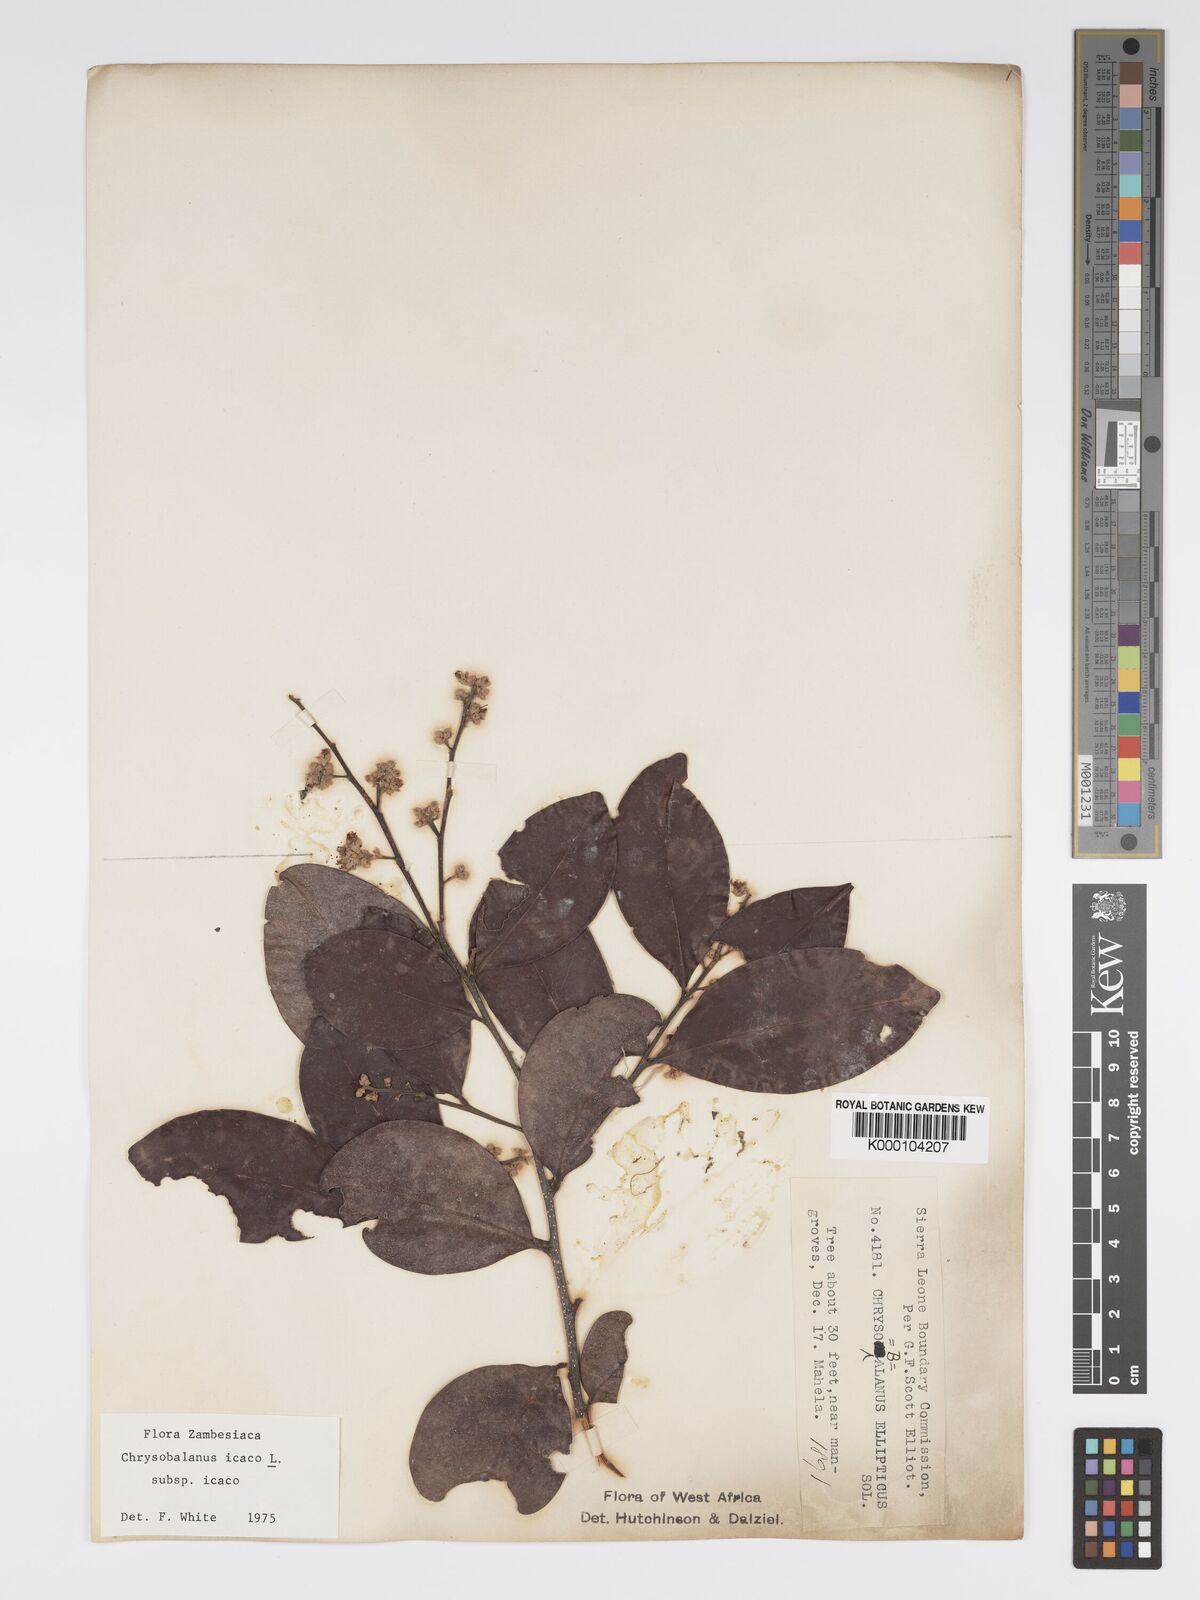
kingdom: Plantae
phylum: Tracheophyta
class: Magnoliopsida
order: Malpighiales
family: Chrysobalanaceae
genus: Chrysobalanus
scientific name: Chrysobalanus icaco
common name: Coco plum
